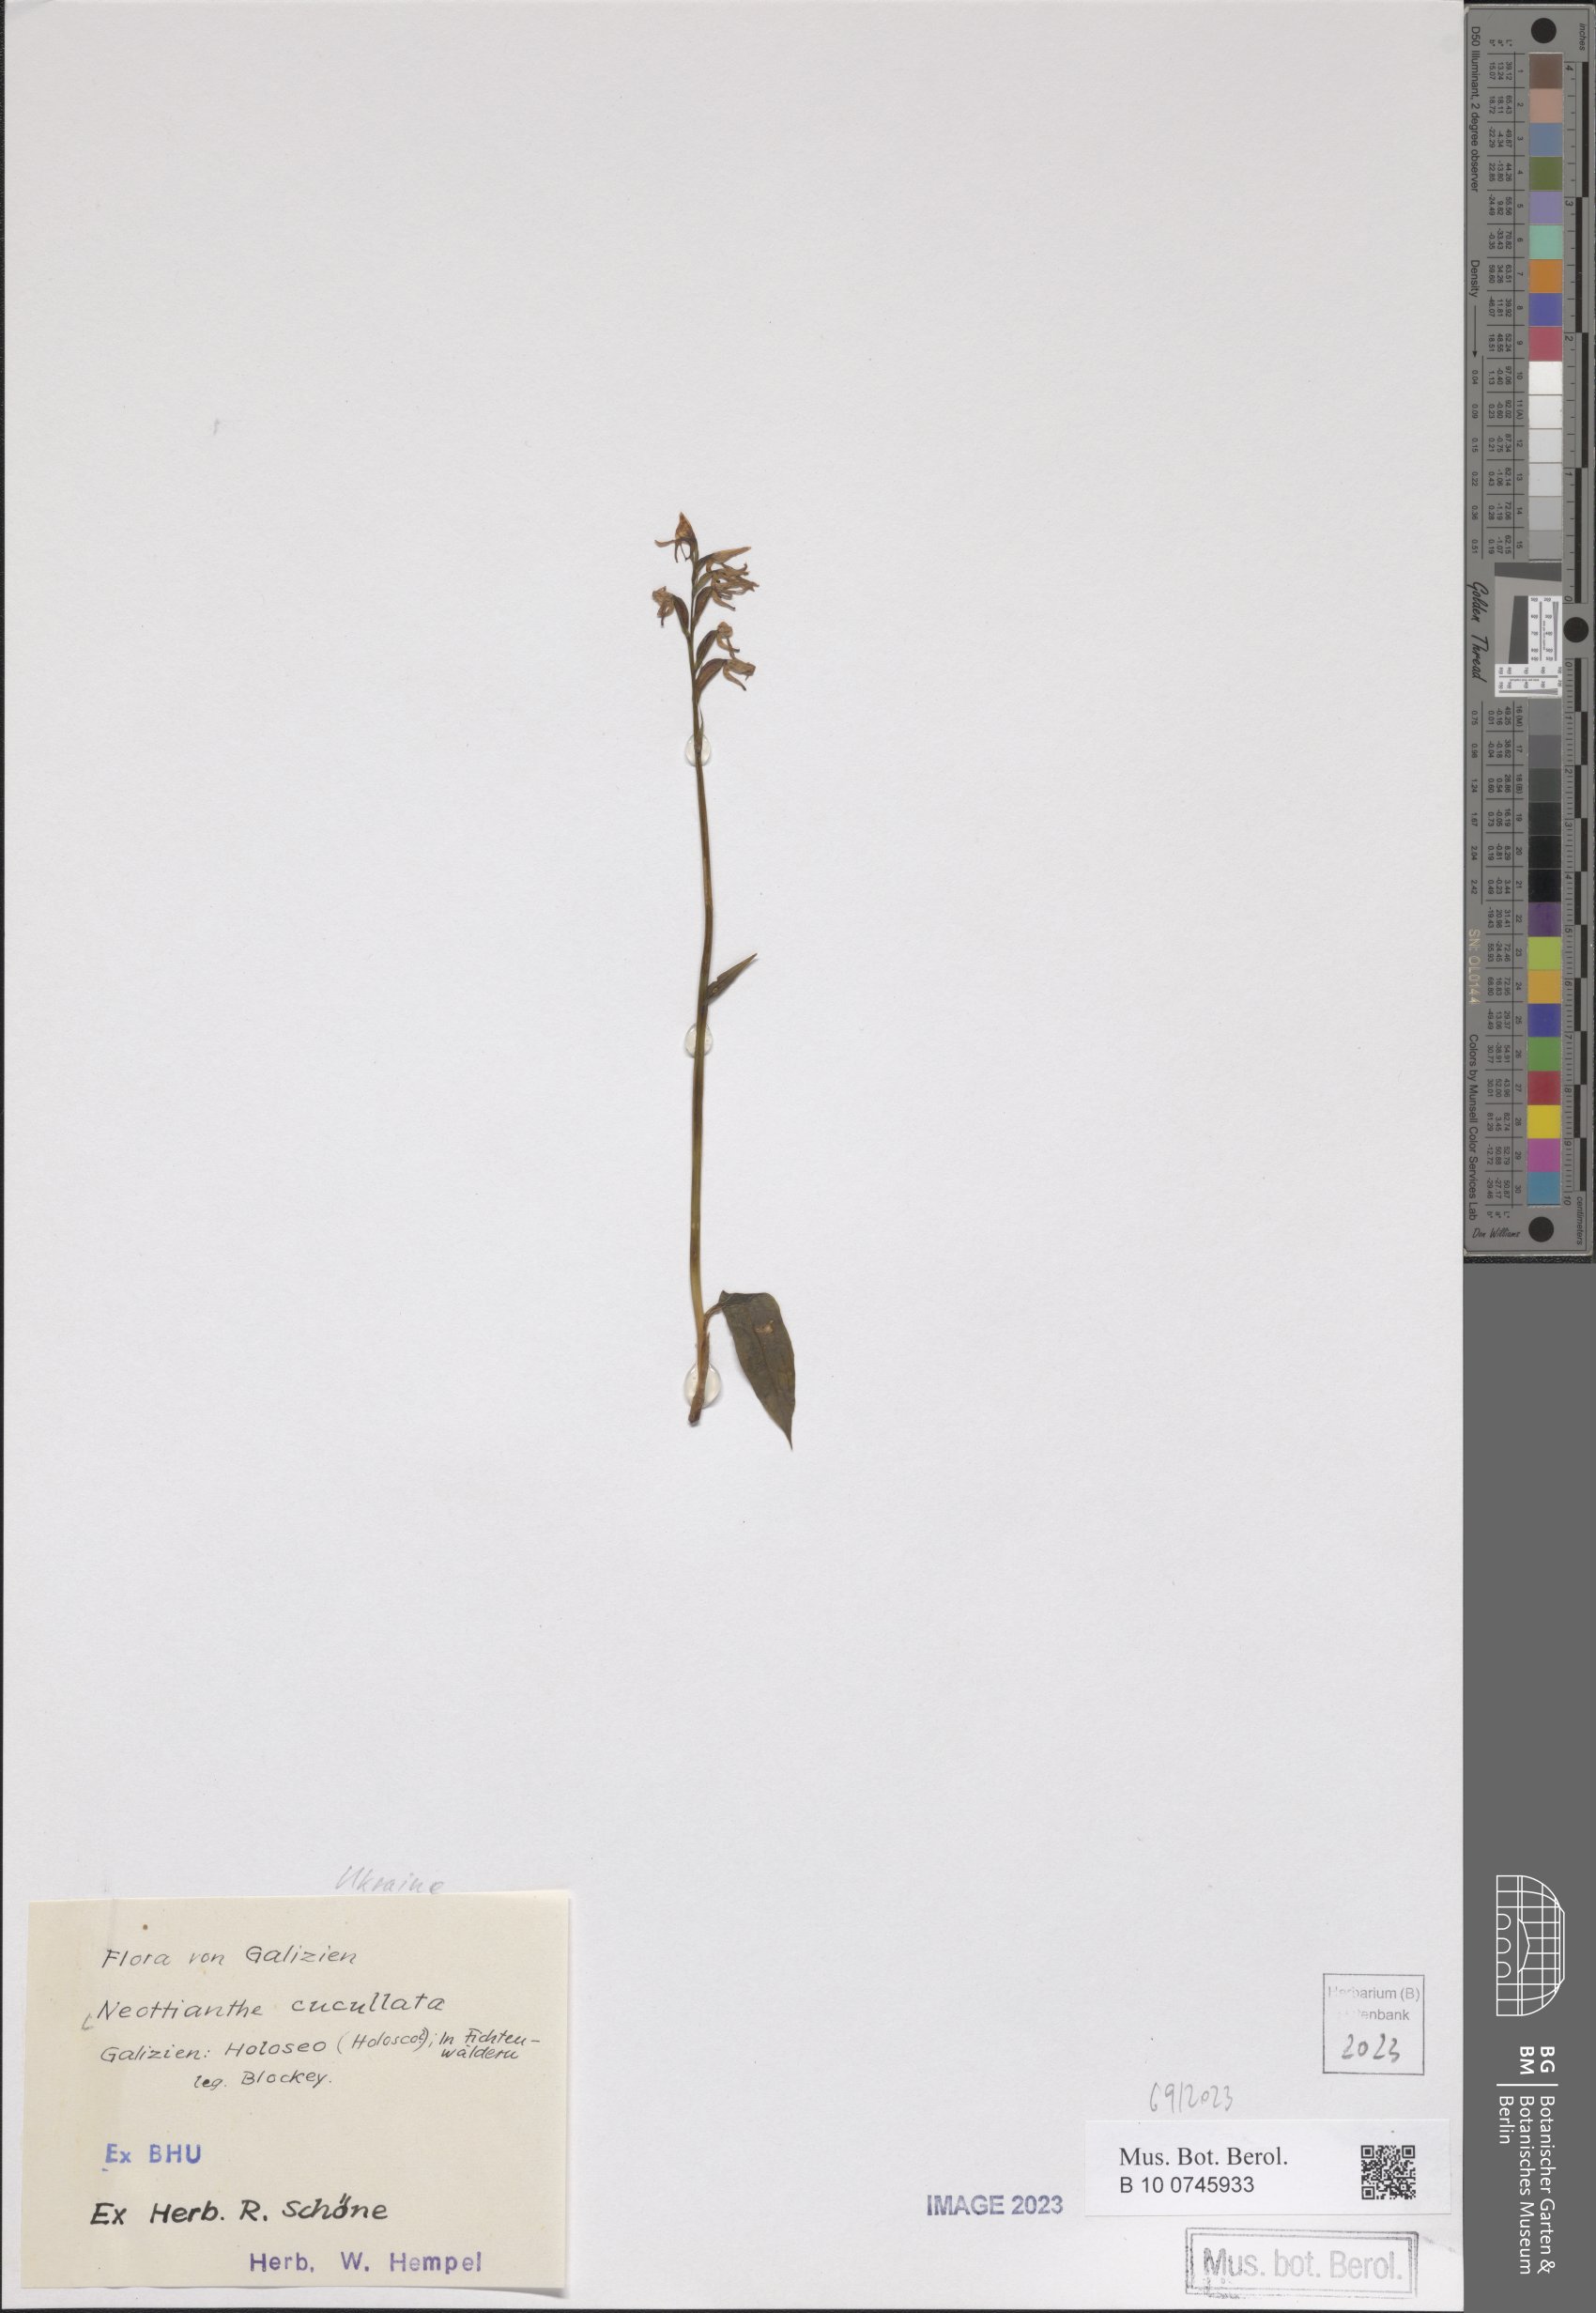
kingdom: Plantae
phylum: Tracheophyta
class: Liliopsida
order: Asparagales
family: Orchidaceae
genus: Hemipilia
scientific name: Hemipilia cucullata
